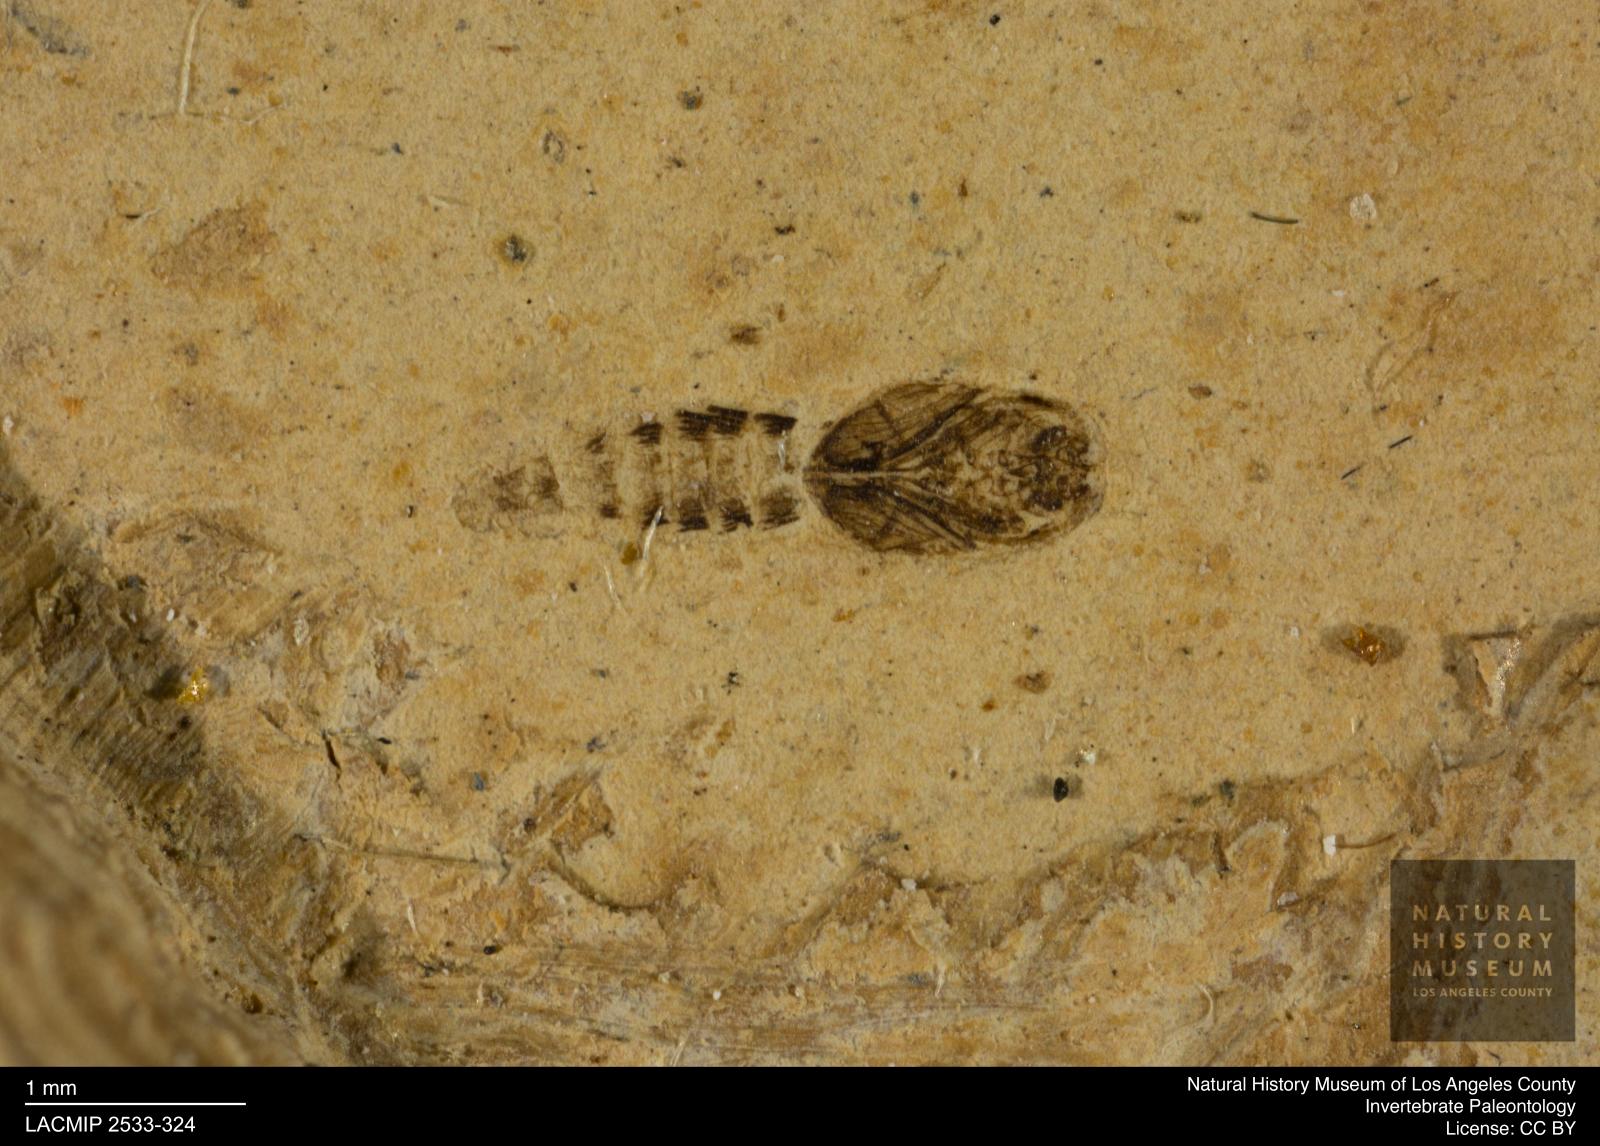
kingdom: Animalia
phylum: Arthropoda
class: Insecta
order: Diptera
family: Ceratopogonidae
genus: Ceratopogon
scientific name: Ceratopogon
